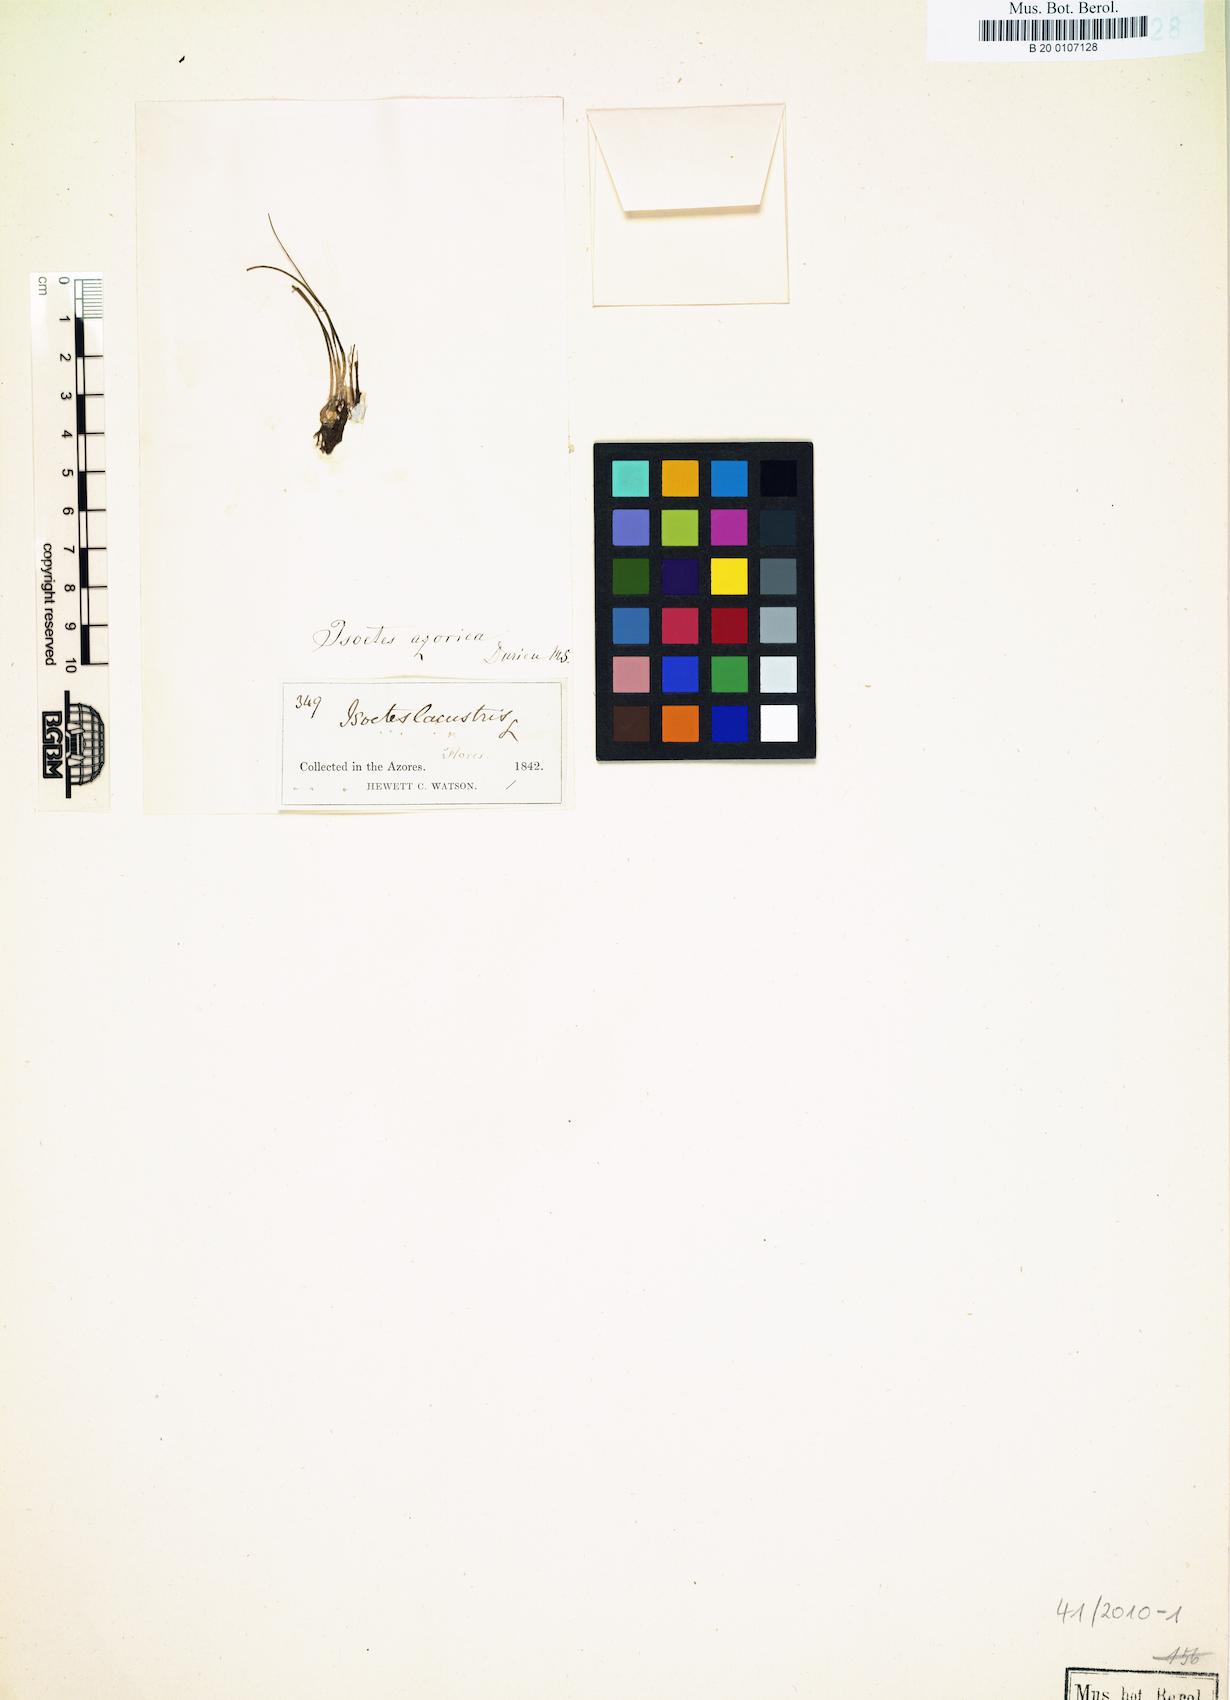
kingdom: Plantae
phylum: Tracheophyta
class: Lycopodiopsida
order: Isoetales
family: Isoetaceae
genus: Isoetes
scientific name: Isoetes azorica
